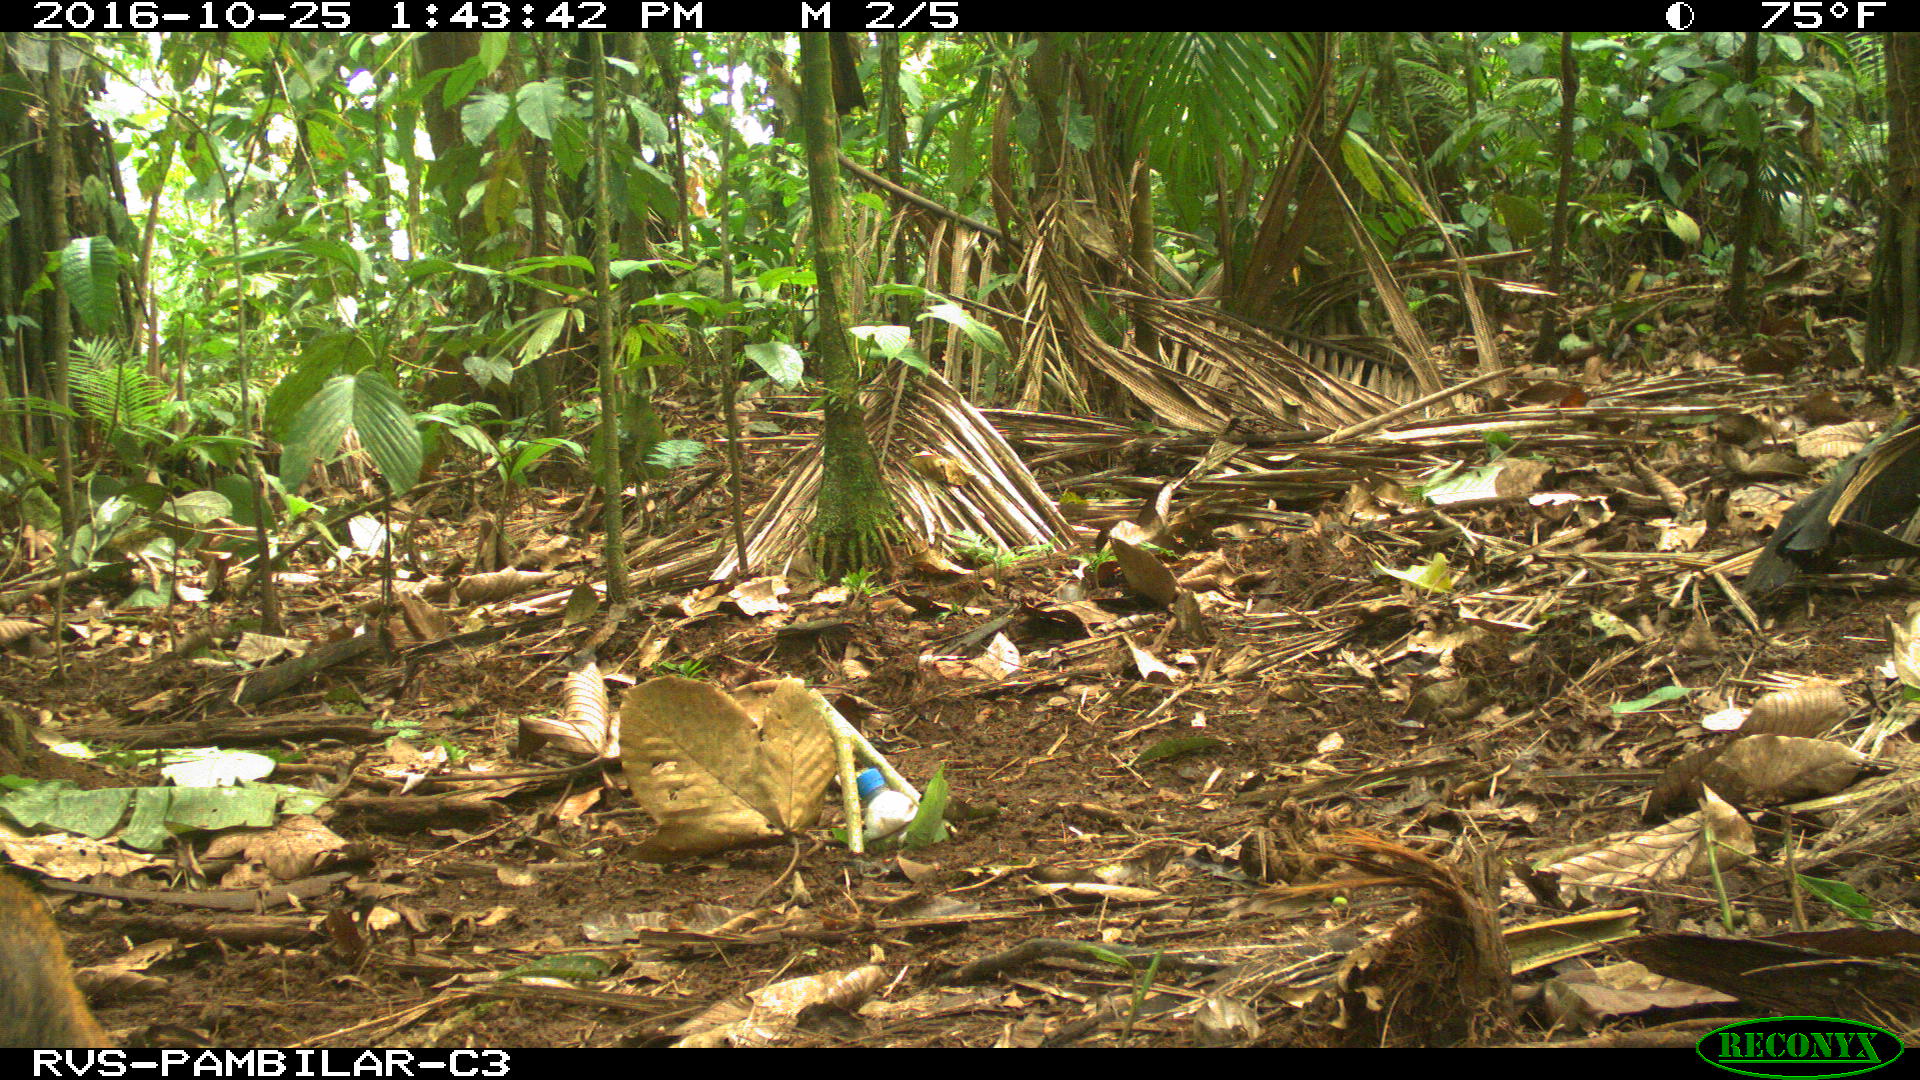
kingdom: Animalia
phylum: Chordata
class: Mammalia
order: Rodentia
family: Dasyproctidae
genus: Dasyprocta
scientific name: Dasyprocta punctata
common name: Central american agouti
